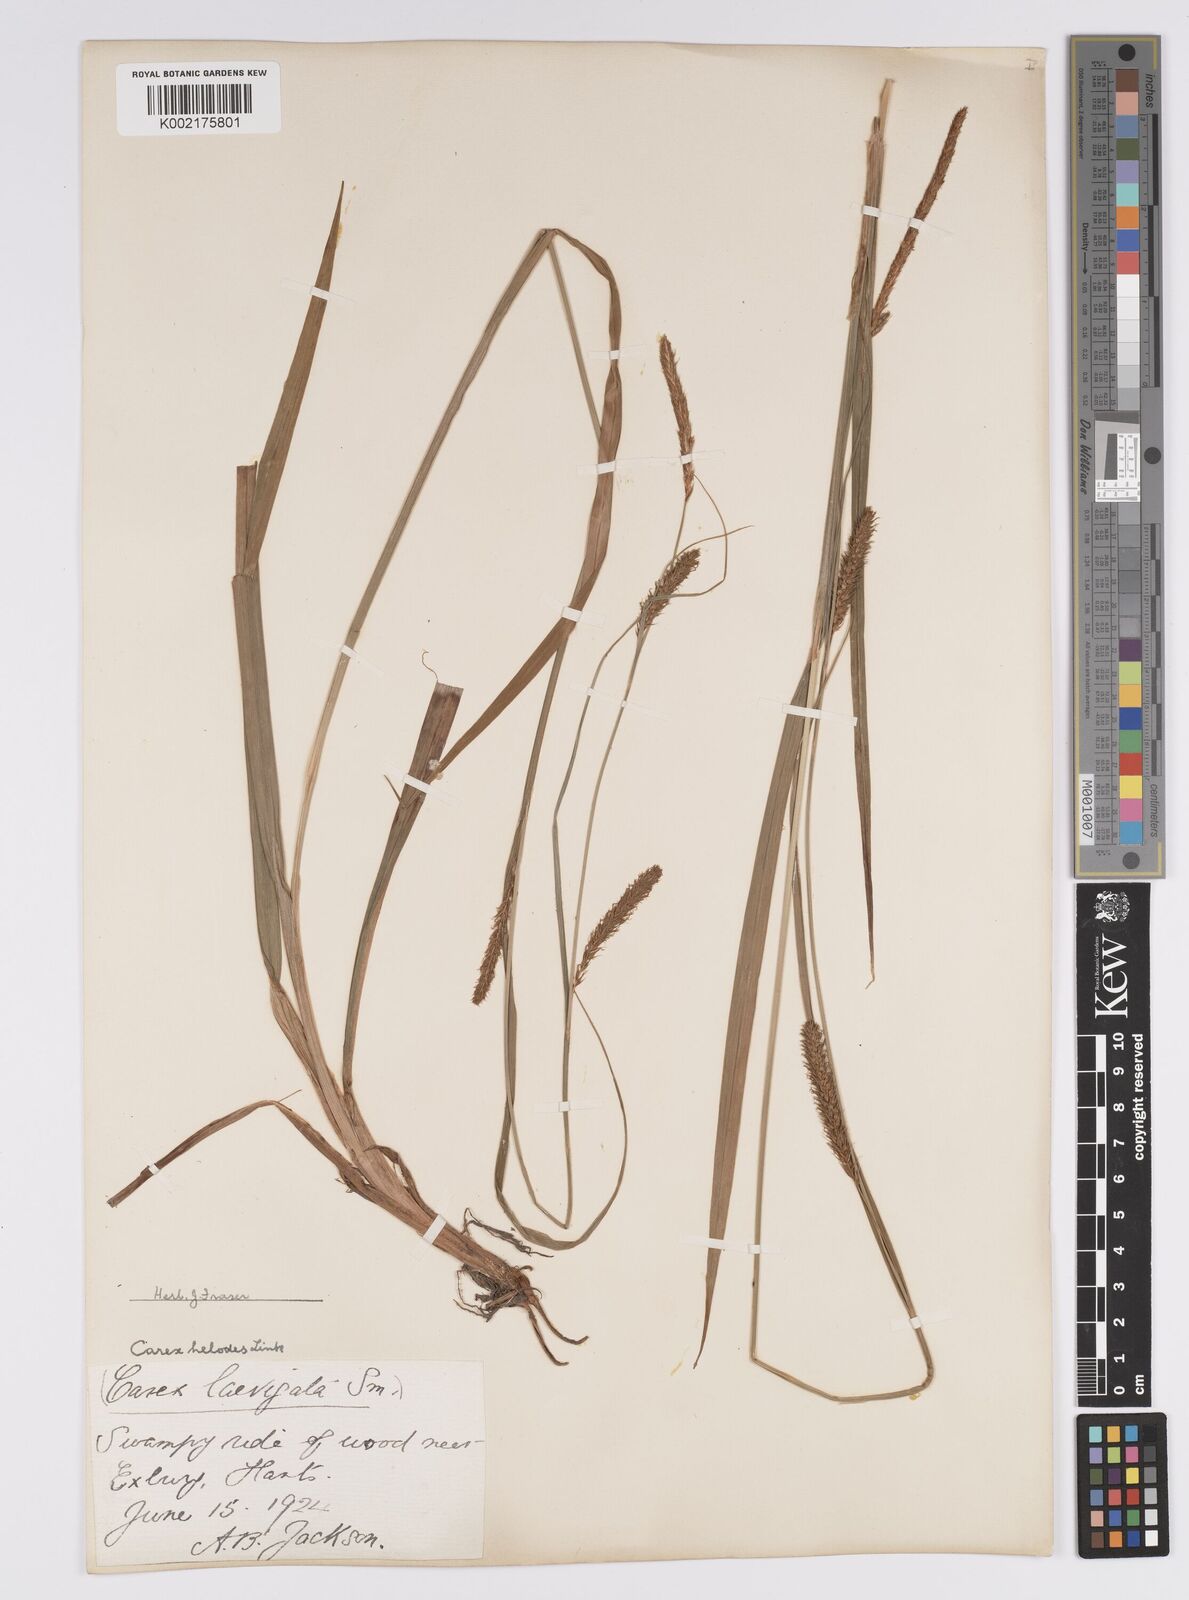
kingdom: Plantae
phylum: Tracheophyta
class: Liliopsida
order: Poales
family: Cyperaceae
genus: Carex
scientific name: Carex laevigata
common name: Smooth-stalked sedge
